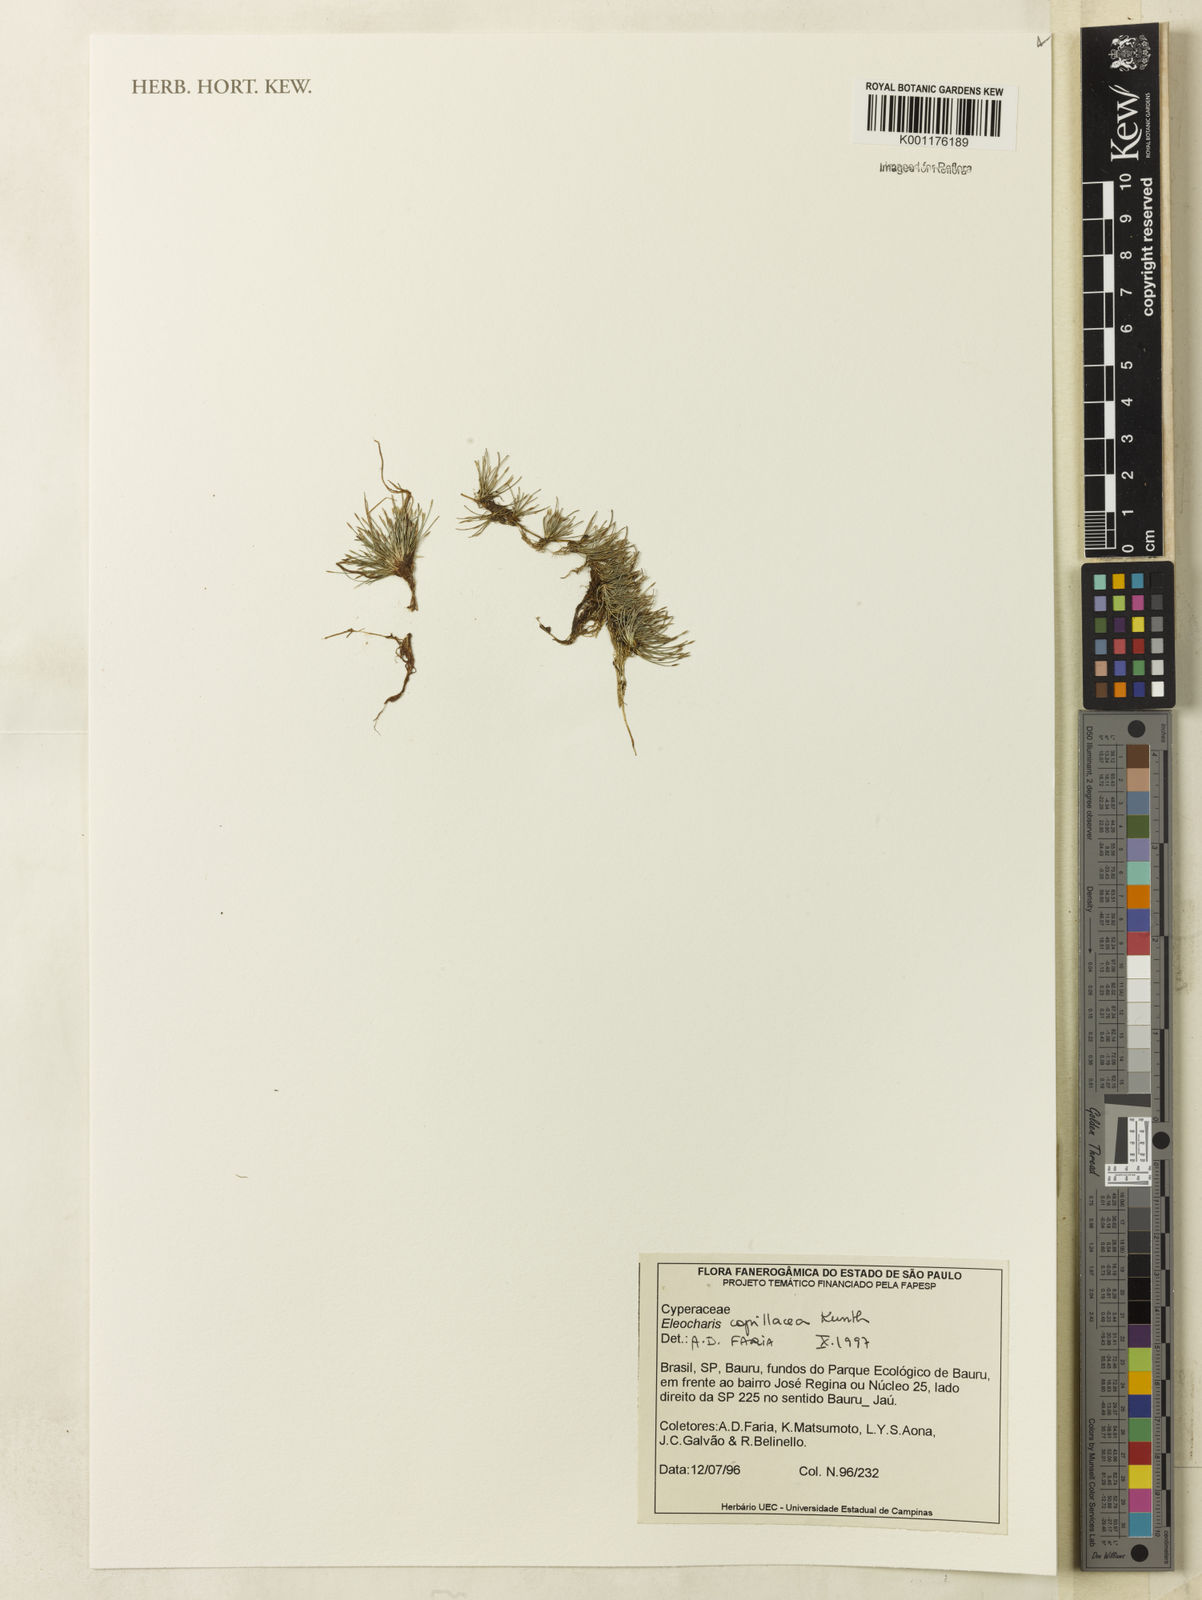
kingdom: Plantae
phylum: Tracheophyta
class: Liliopsida
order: Poales
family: Cyperaceae
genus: Eleocharis
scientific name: Eleocharis capillacea
